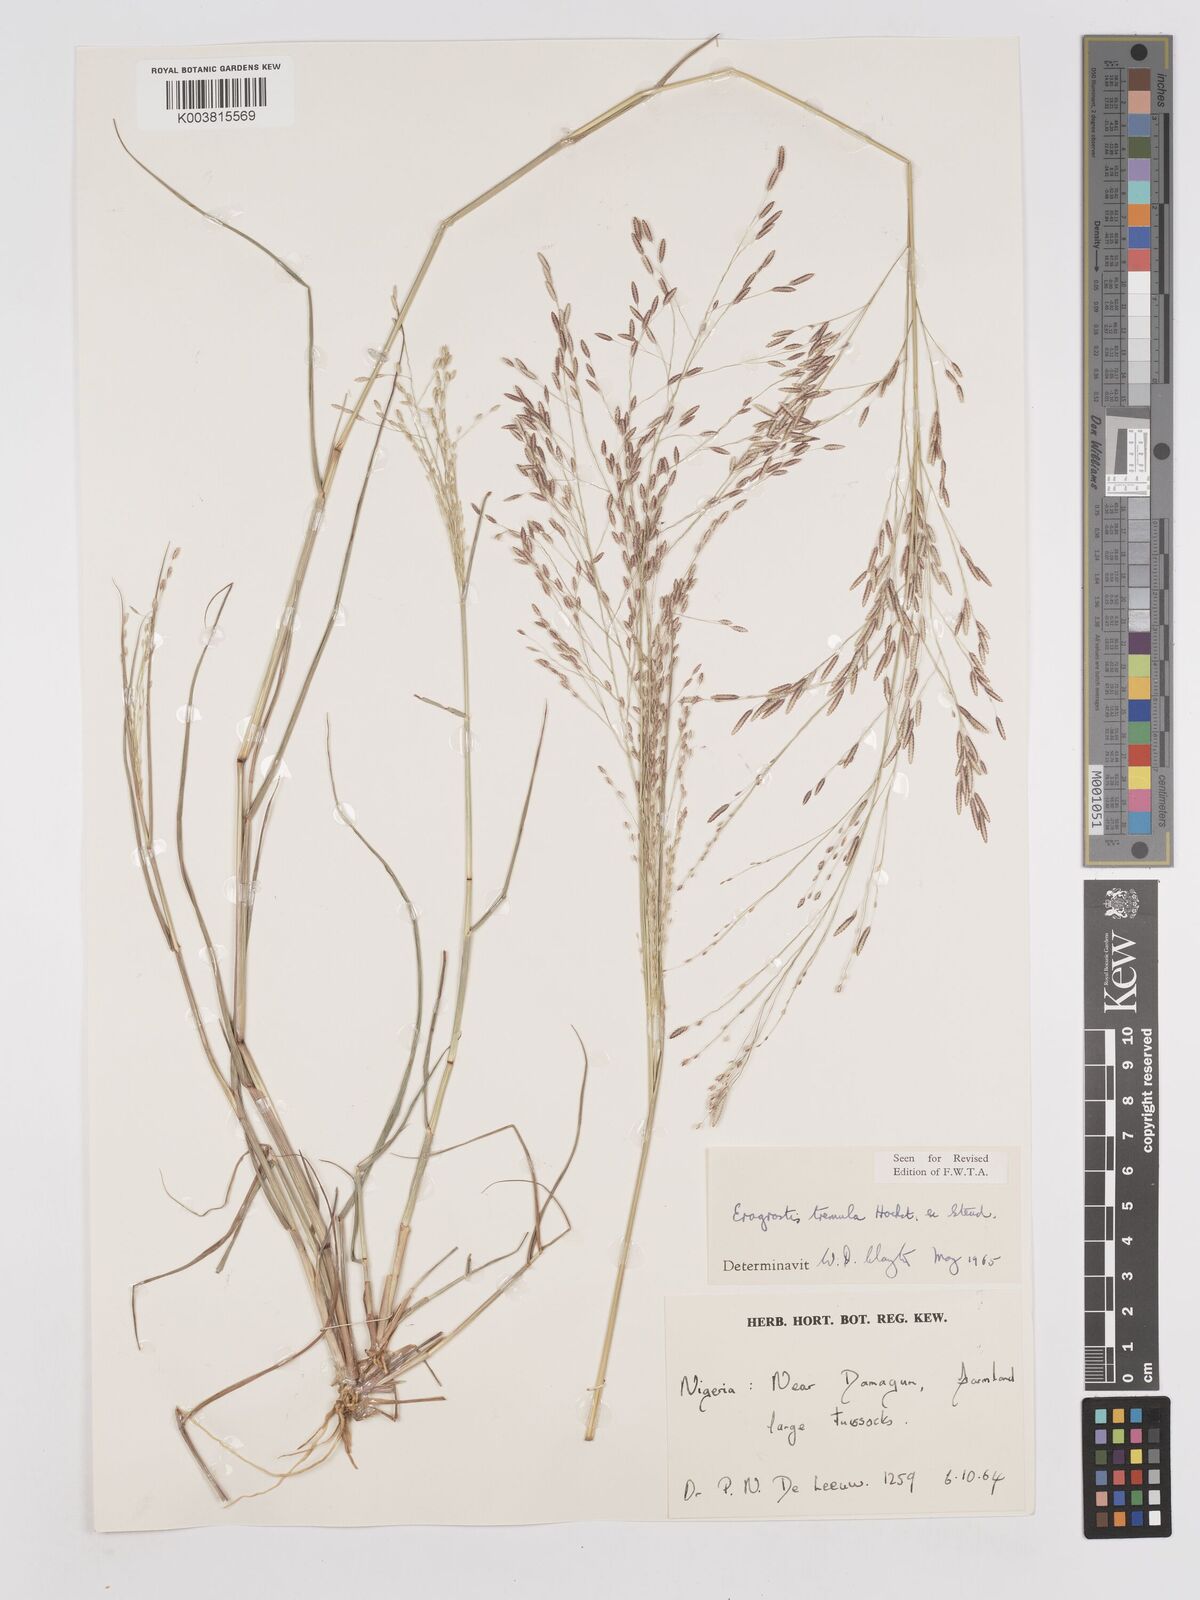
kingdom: Plantae
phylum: Tracheophyta
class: Liliopsida
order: Poales
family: Poaceae
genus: Eragrostis
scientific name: Eragrostis tremula
